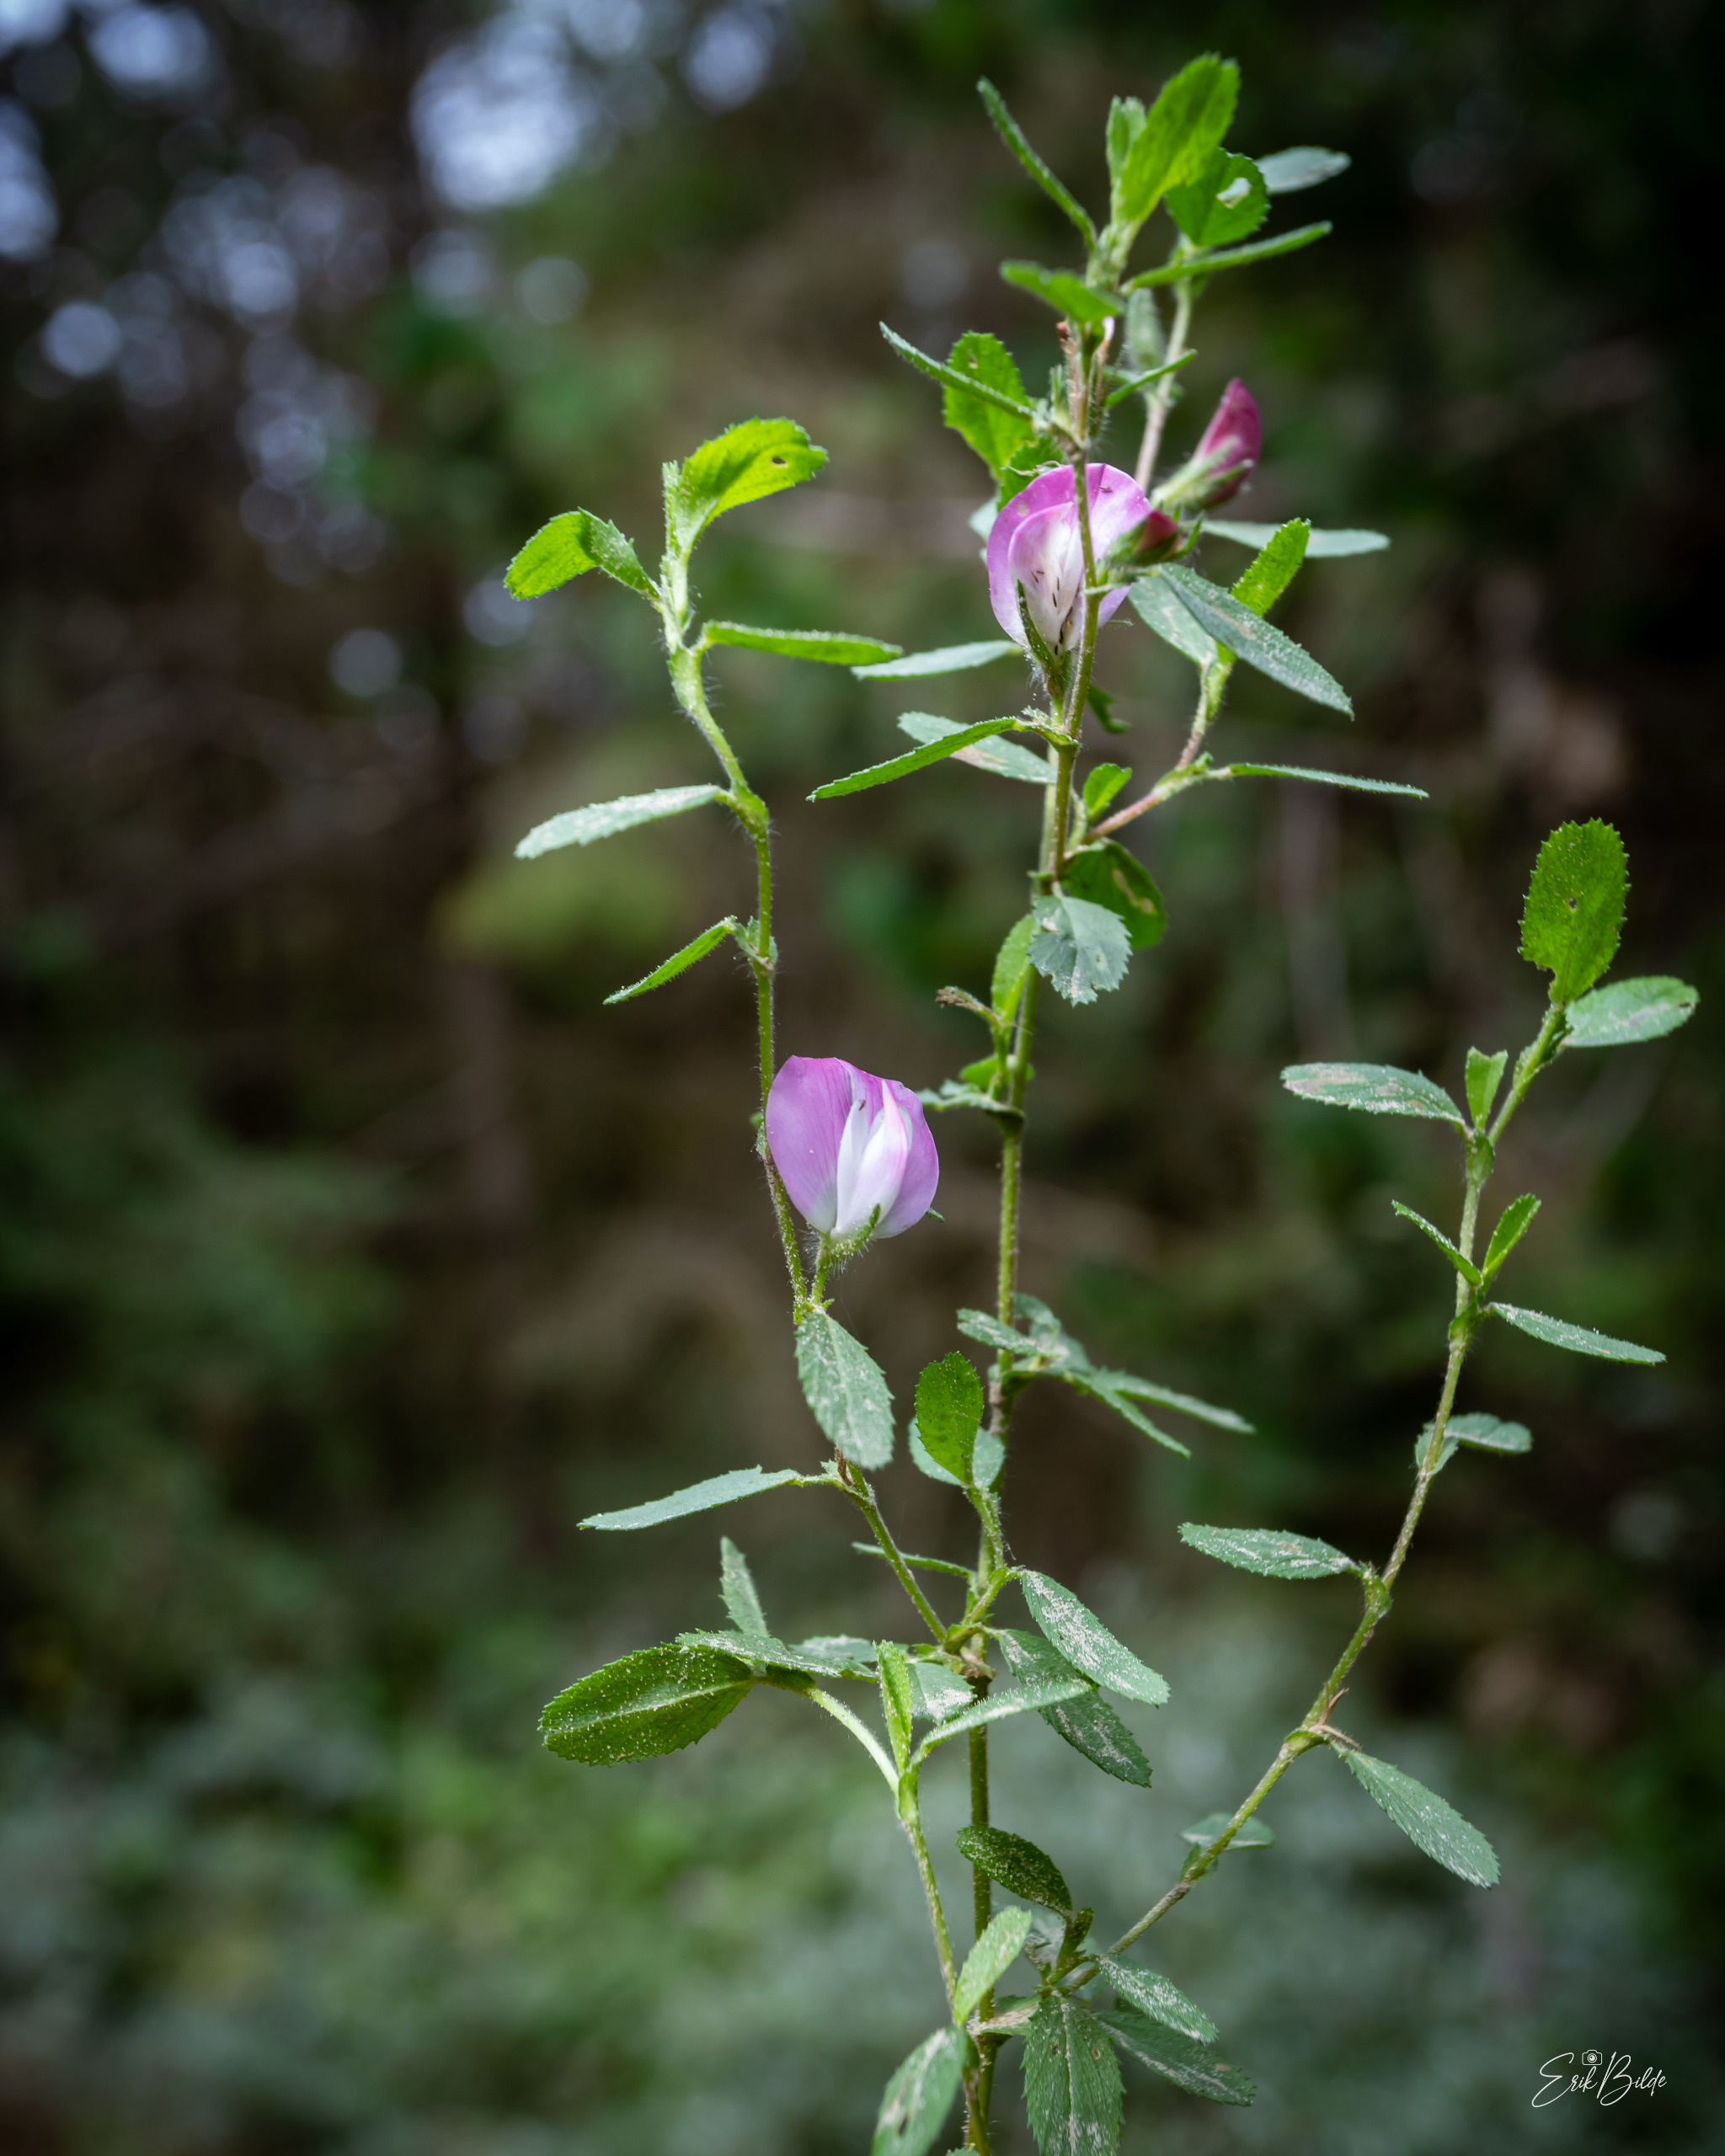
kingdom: Plantae
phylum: Tracheophyta
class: Magnoliopsida
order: Fabales
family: Fabaceae
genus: Ononis
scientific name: Ononis spinosa
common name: Mark-krageklo
